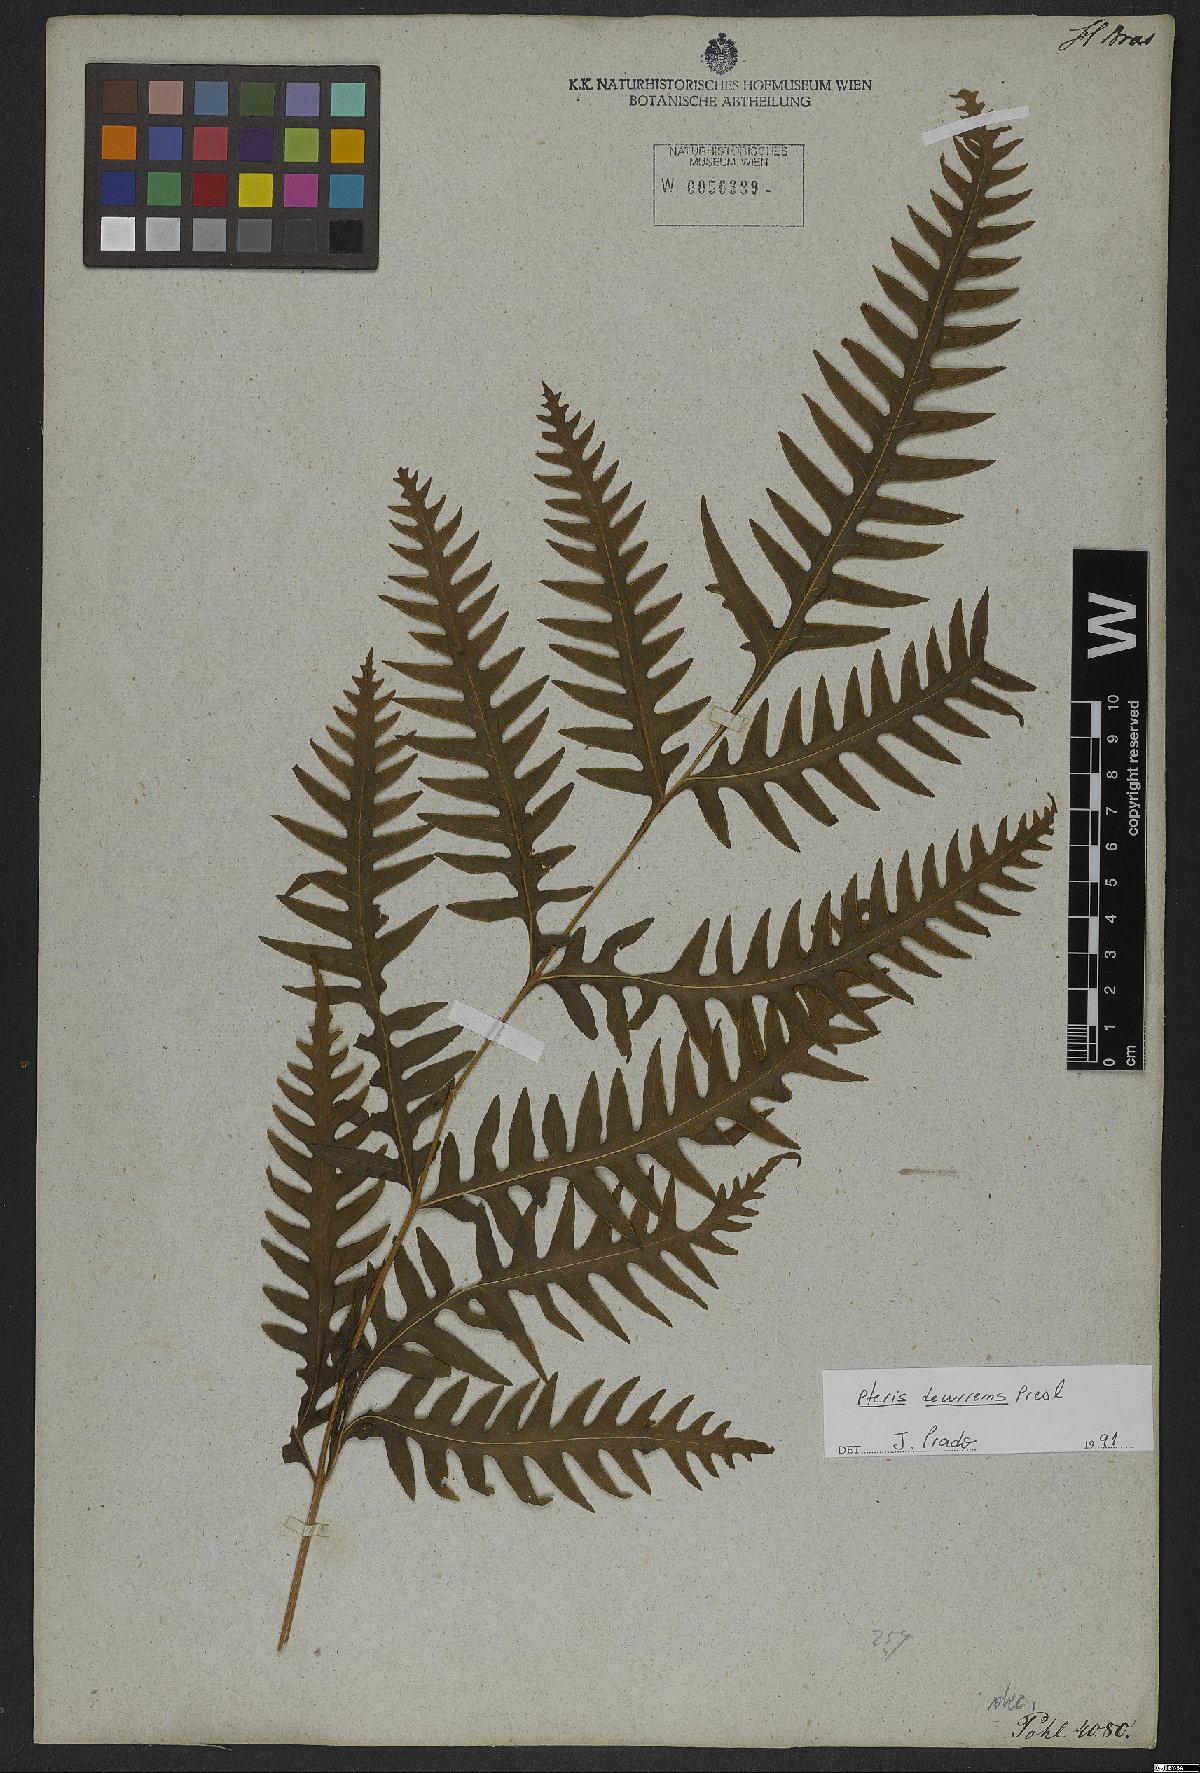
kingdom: Plantae
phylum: Tracheophyta
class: Polypodiopsida
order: Polypodiales
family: Pteridaceae
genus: Pteris
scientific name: Pteris decurrens
